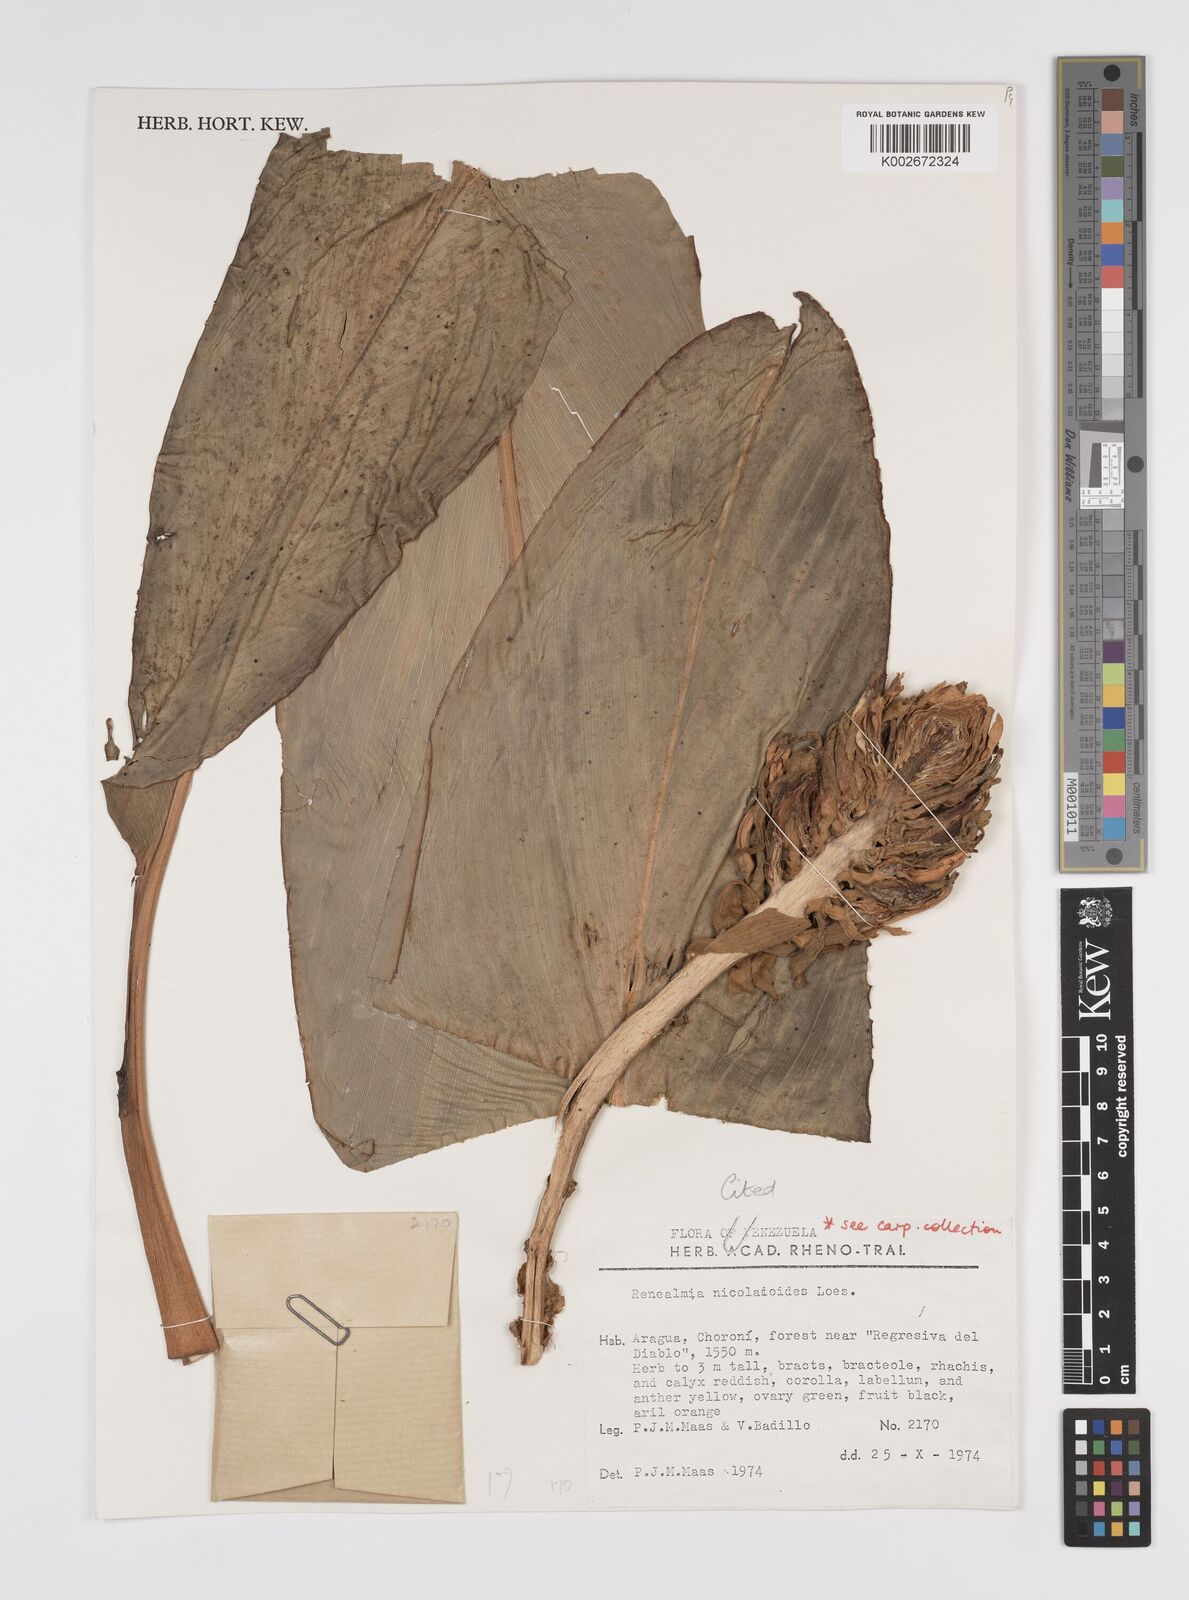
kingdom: Plantae
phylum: Tracheophyta
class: Liliopsida
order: Zingiberales
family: Zingiberaceae
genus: Renealmia
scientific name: Renealmia nicolaioides
